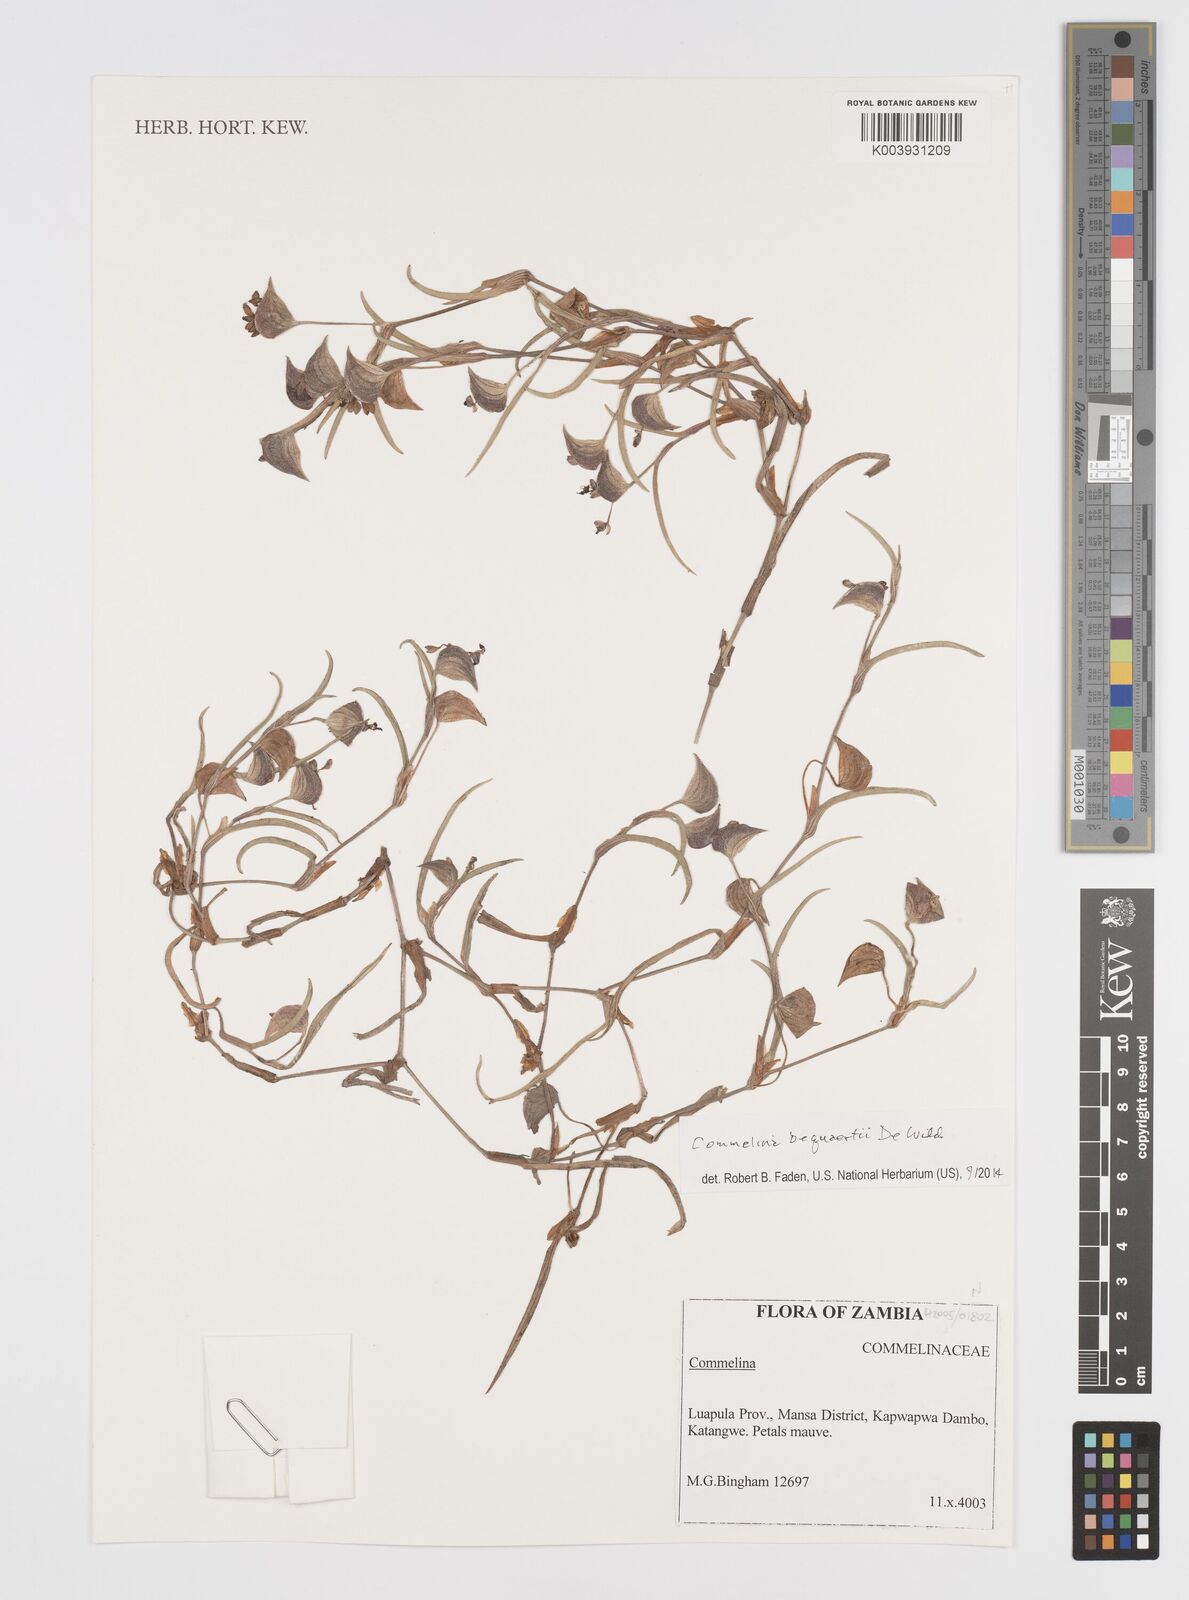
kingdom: Plantae
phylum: Tracheophyta
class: Liliopsida
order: Commelinales
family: Commelinaceae
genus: Commelina
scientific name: Commelina bequaertii
